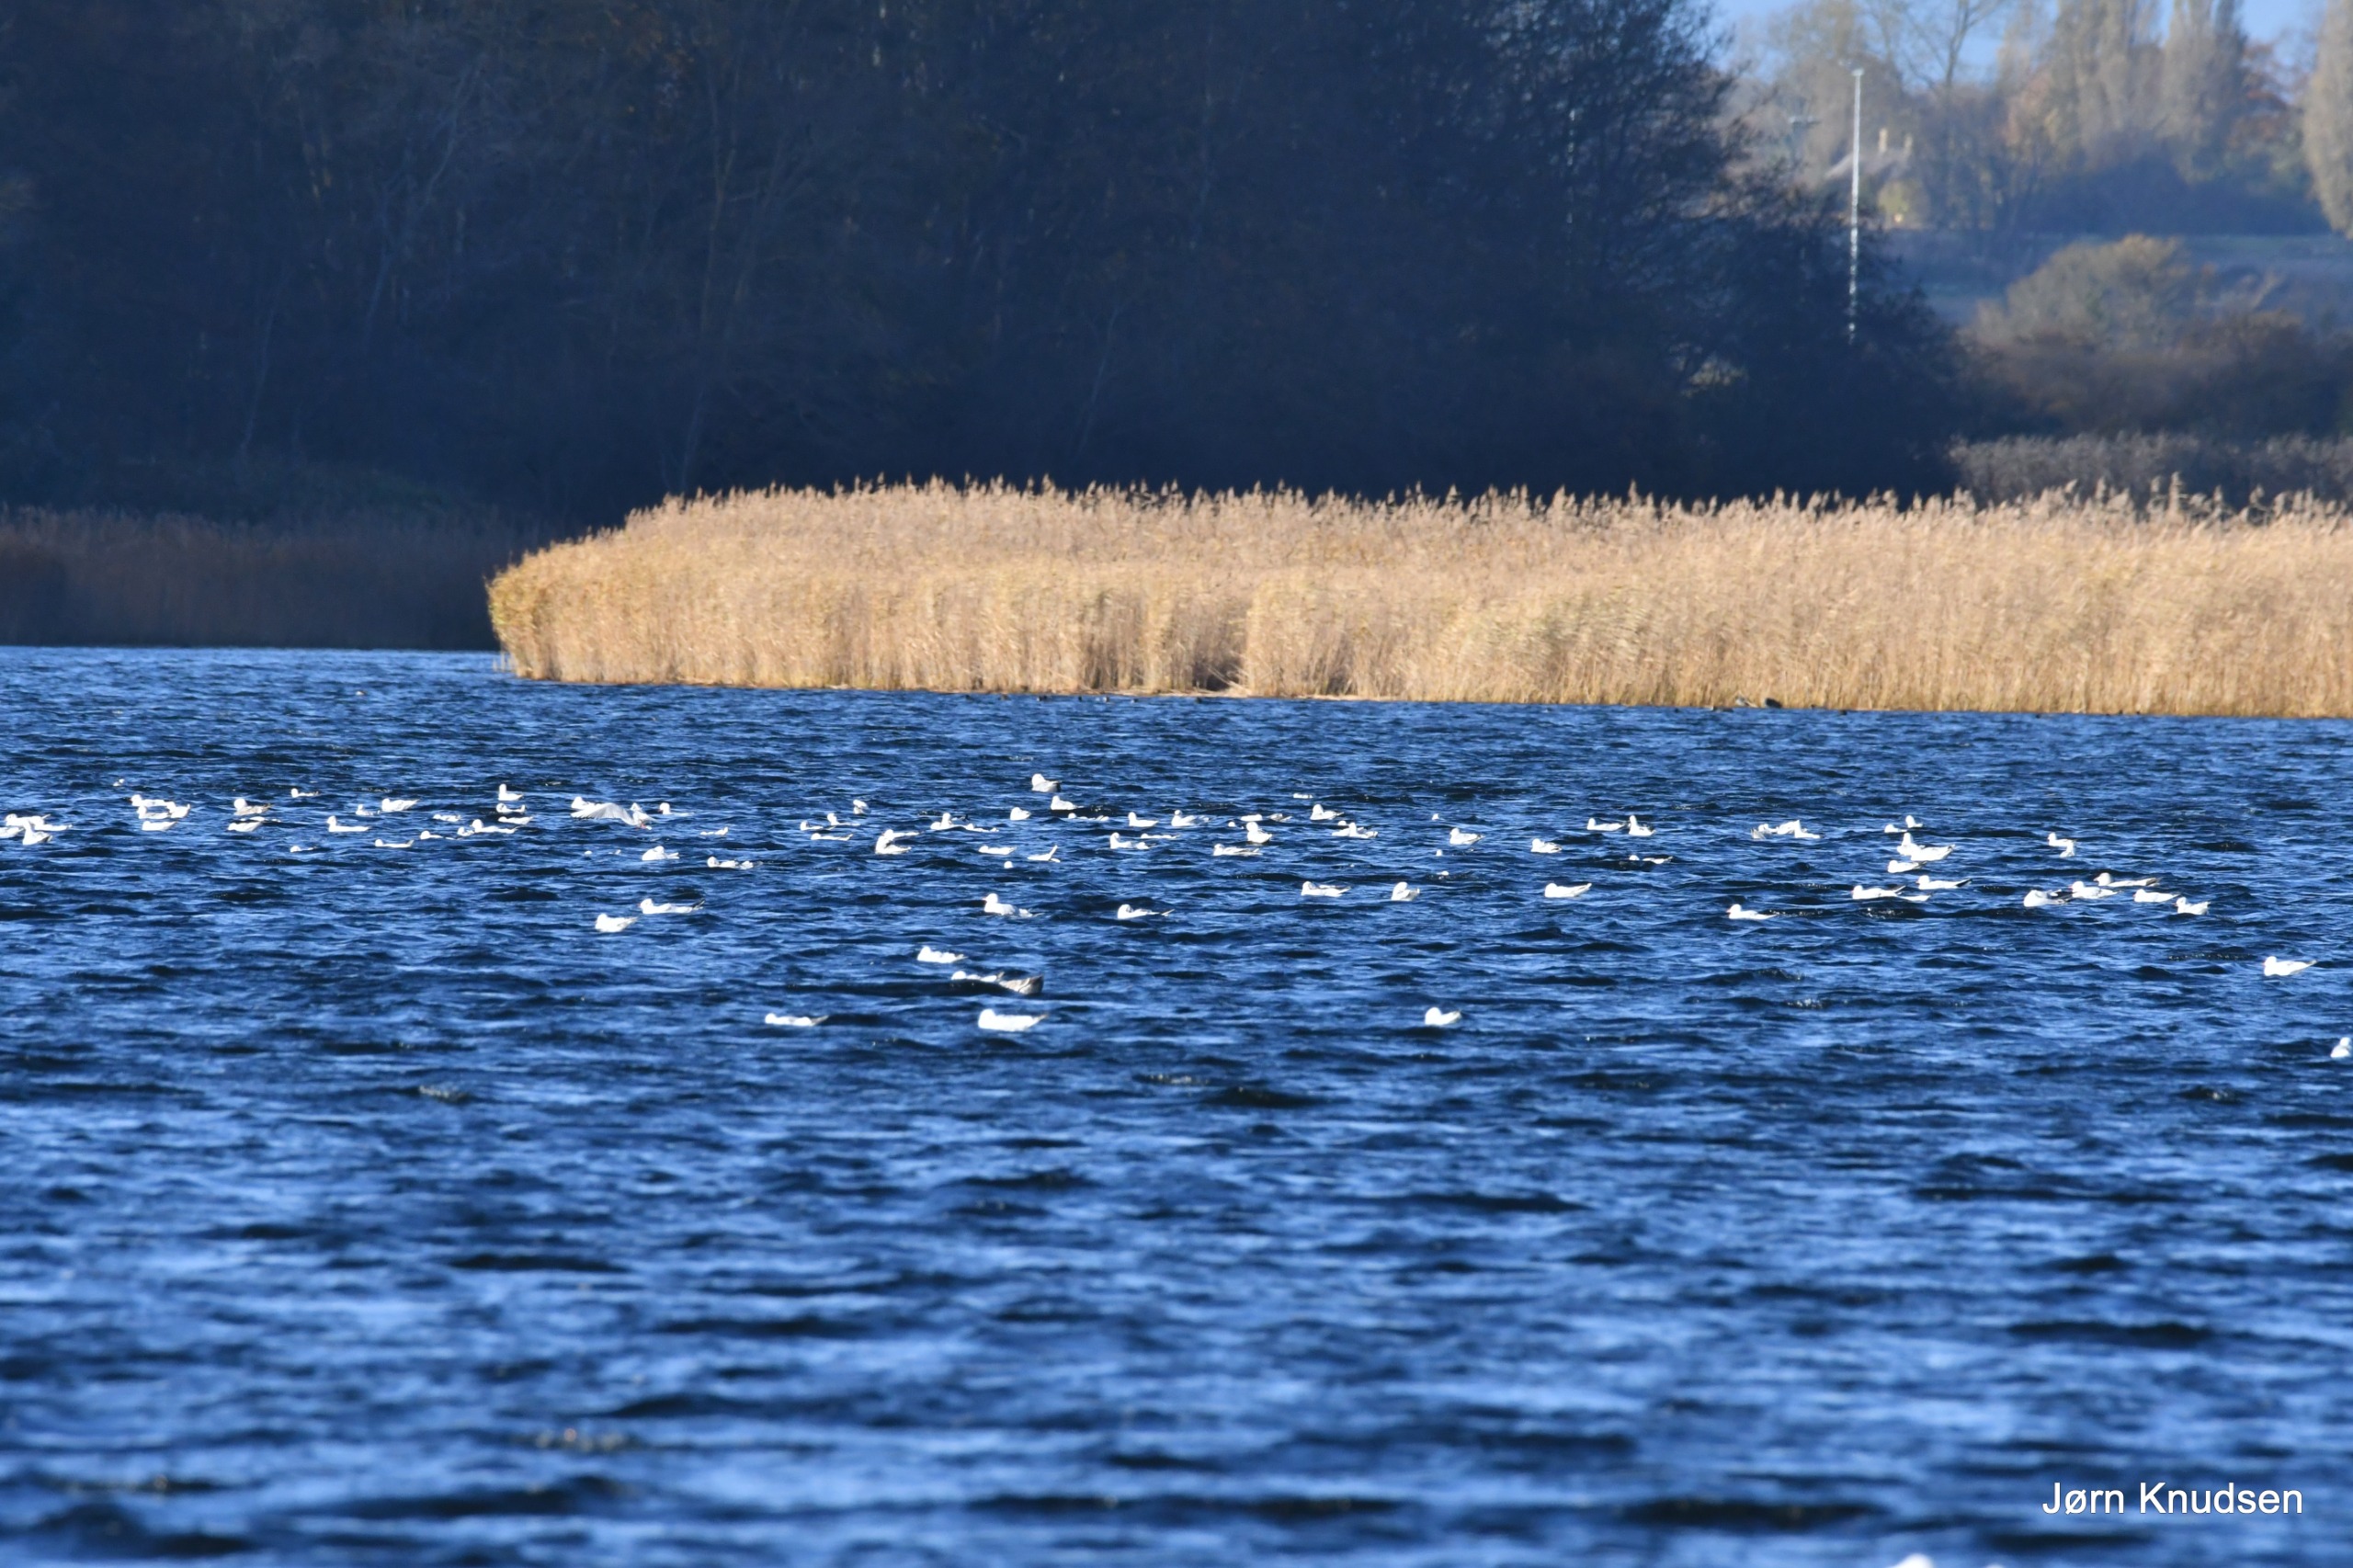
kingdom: Animalia
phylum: Chordata
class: Aves
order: Charadriiformes
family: Laridae
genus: Chroicocephalus
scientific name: Chroicocephalus ridibundus
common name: Hættemåge
